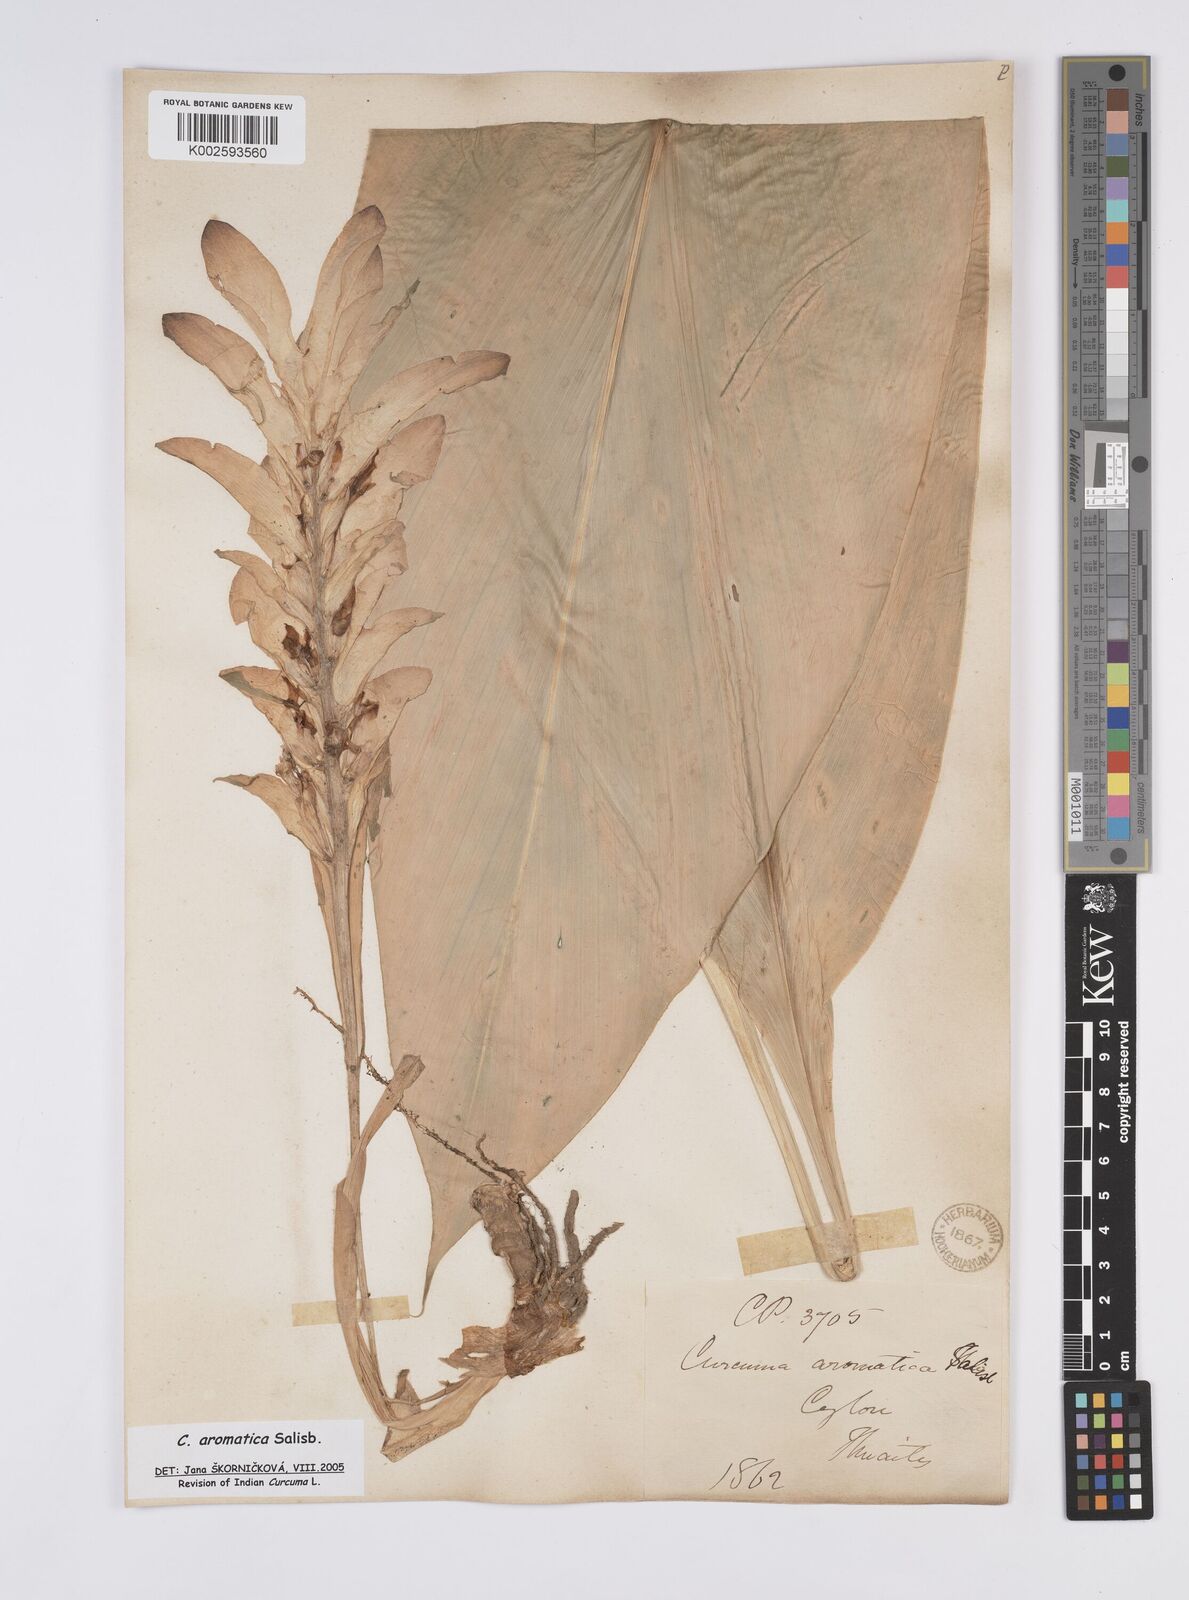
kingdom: Plantae
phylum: Tracheophyta
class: Liliopsida
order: Zingiberales
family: Zingiberaceae
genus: Curcuma
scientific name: Curcuma aromatica
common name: Wild turmeric
